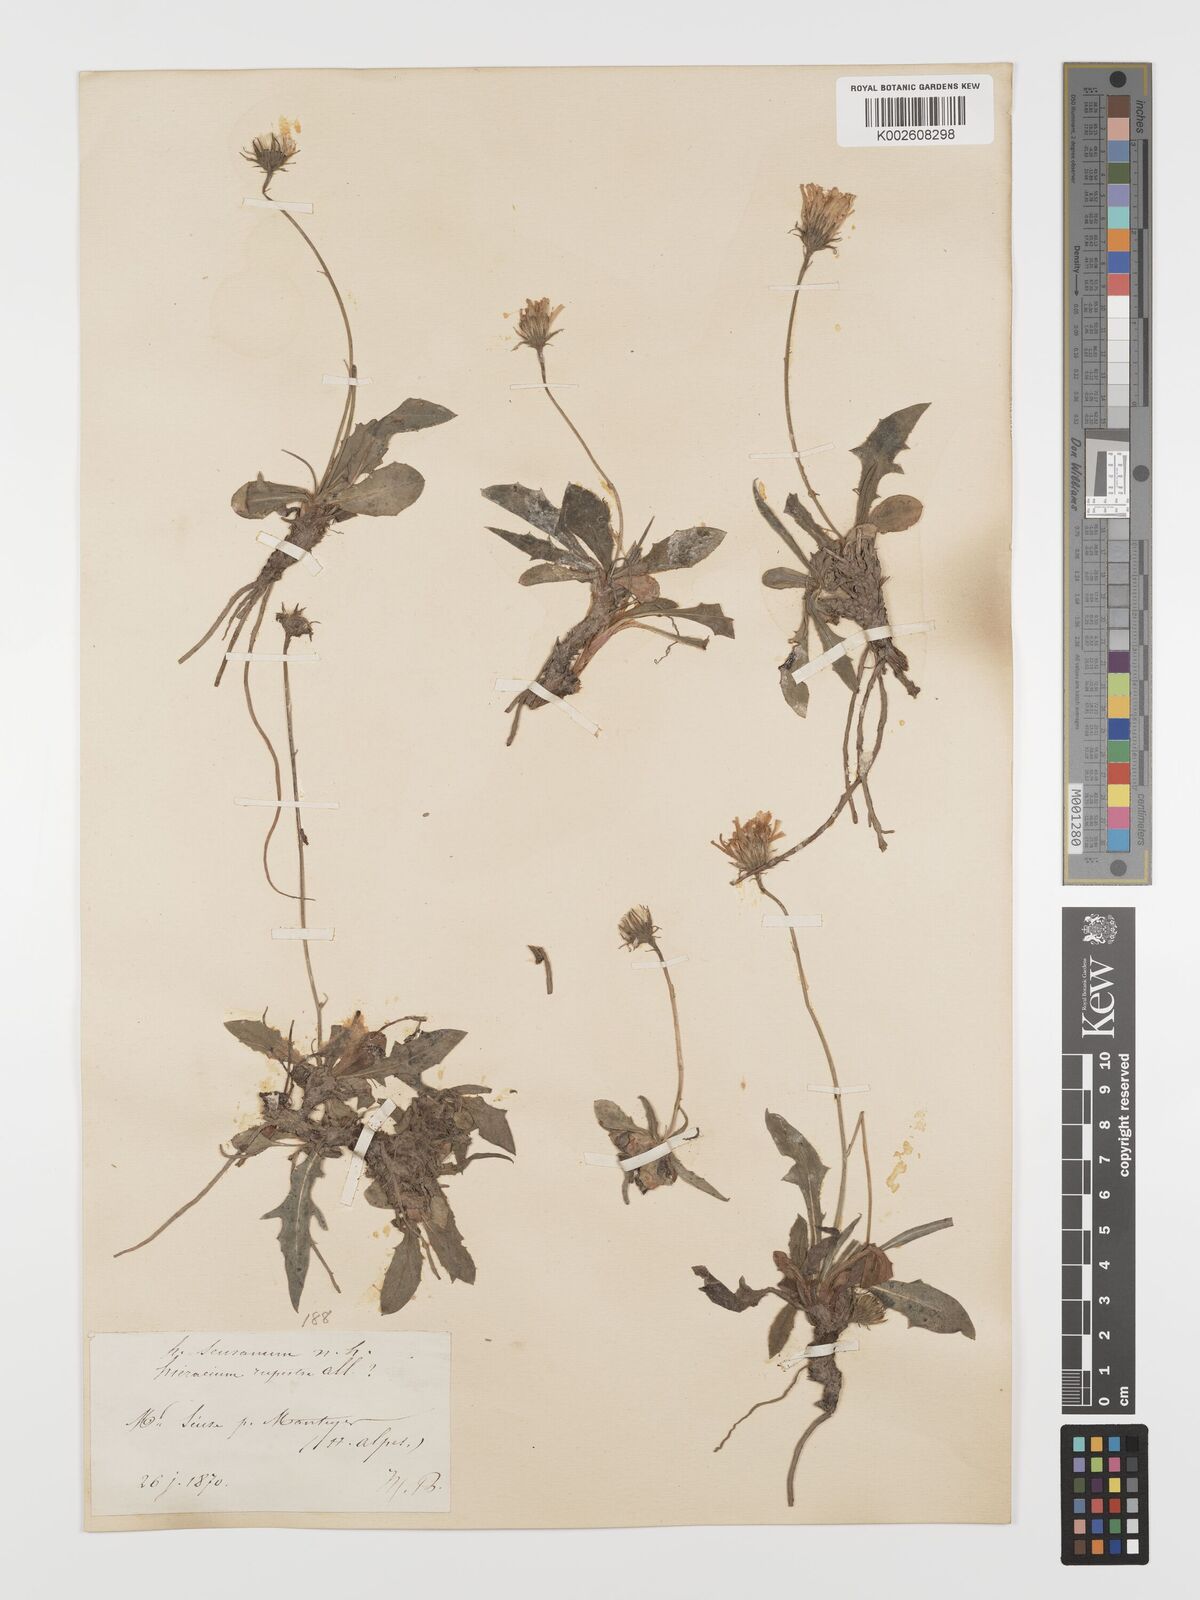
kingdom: Plantae
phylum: Tracheophyta
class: Magnoliopsida
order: Asterales
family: Asteraceae
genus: Hieracium
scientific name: Hieracium rupestre
